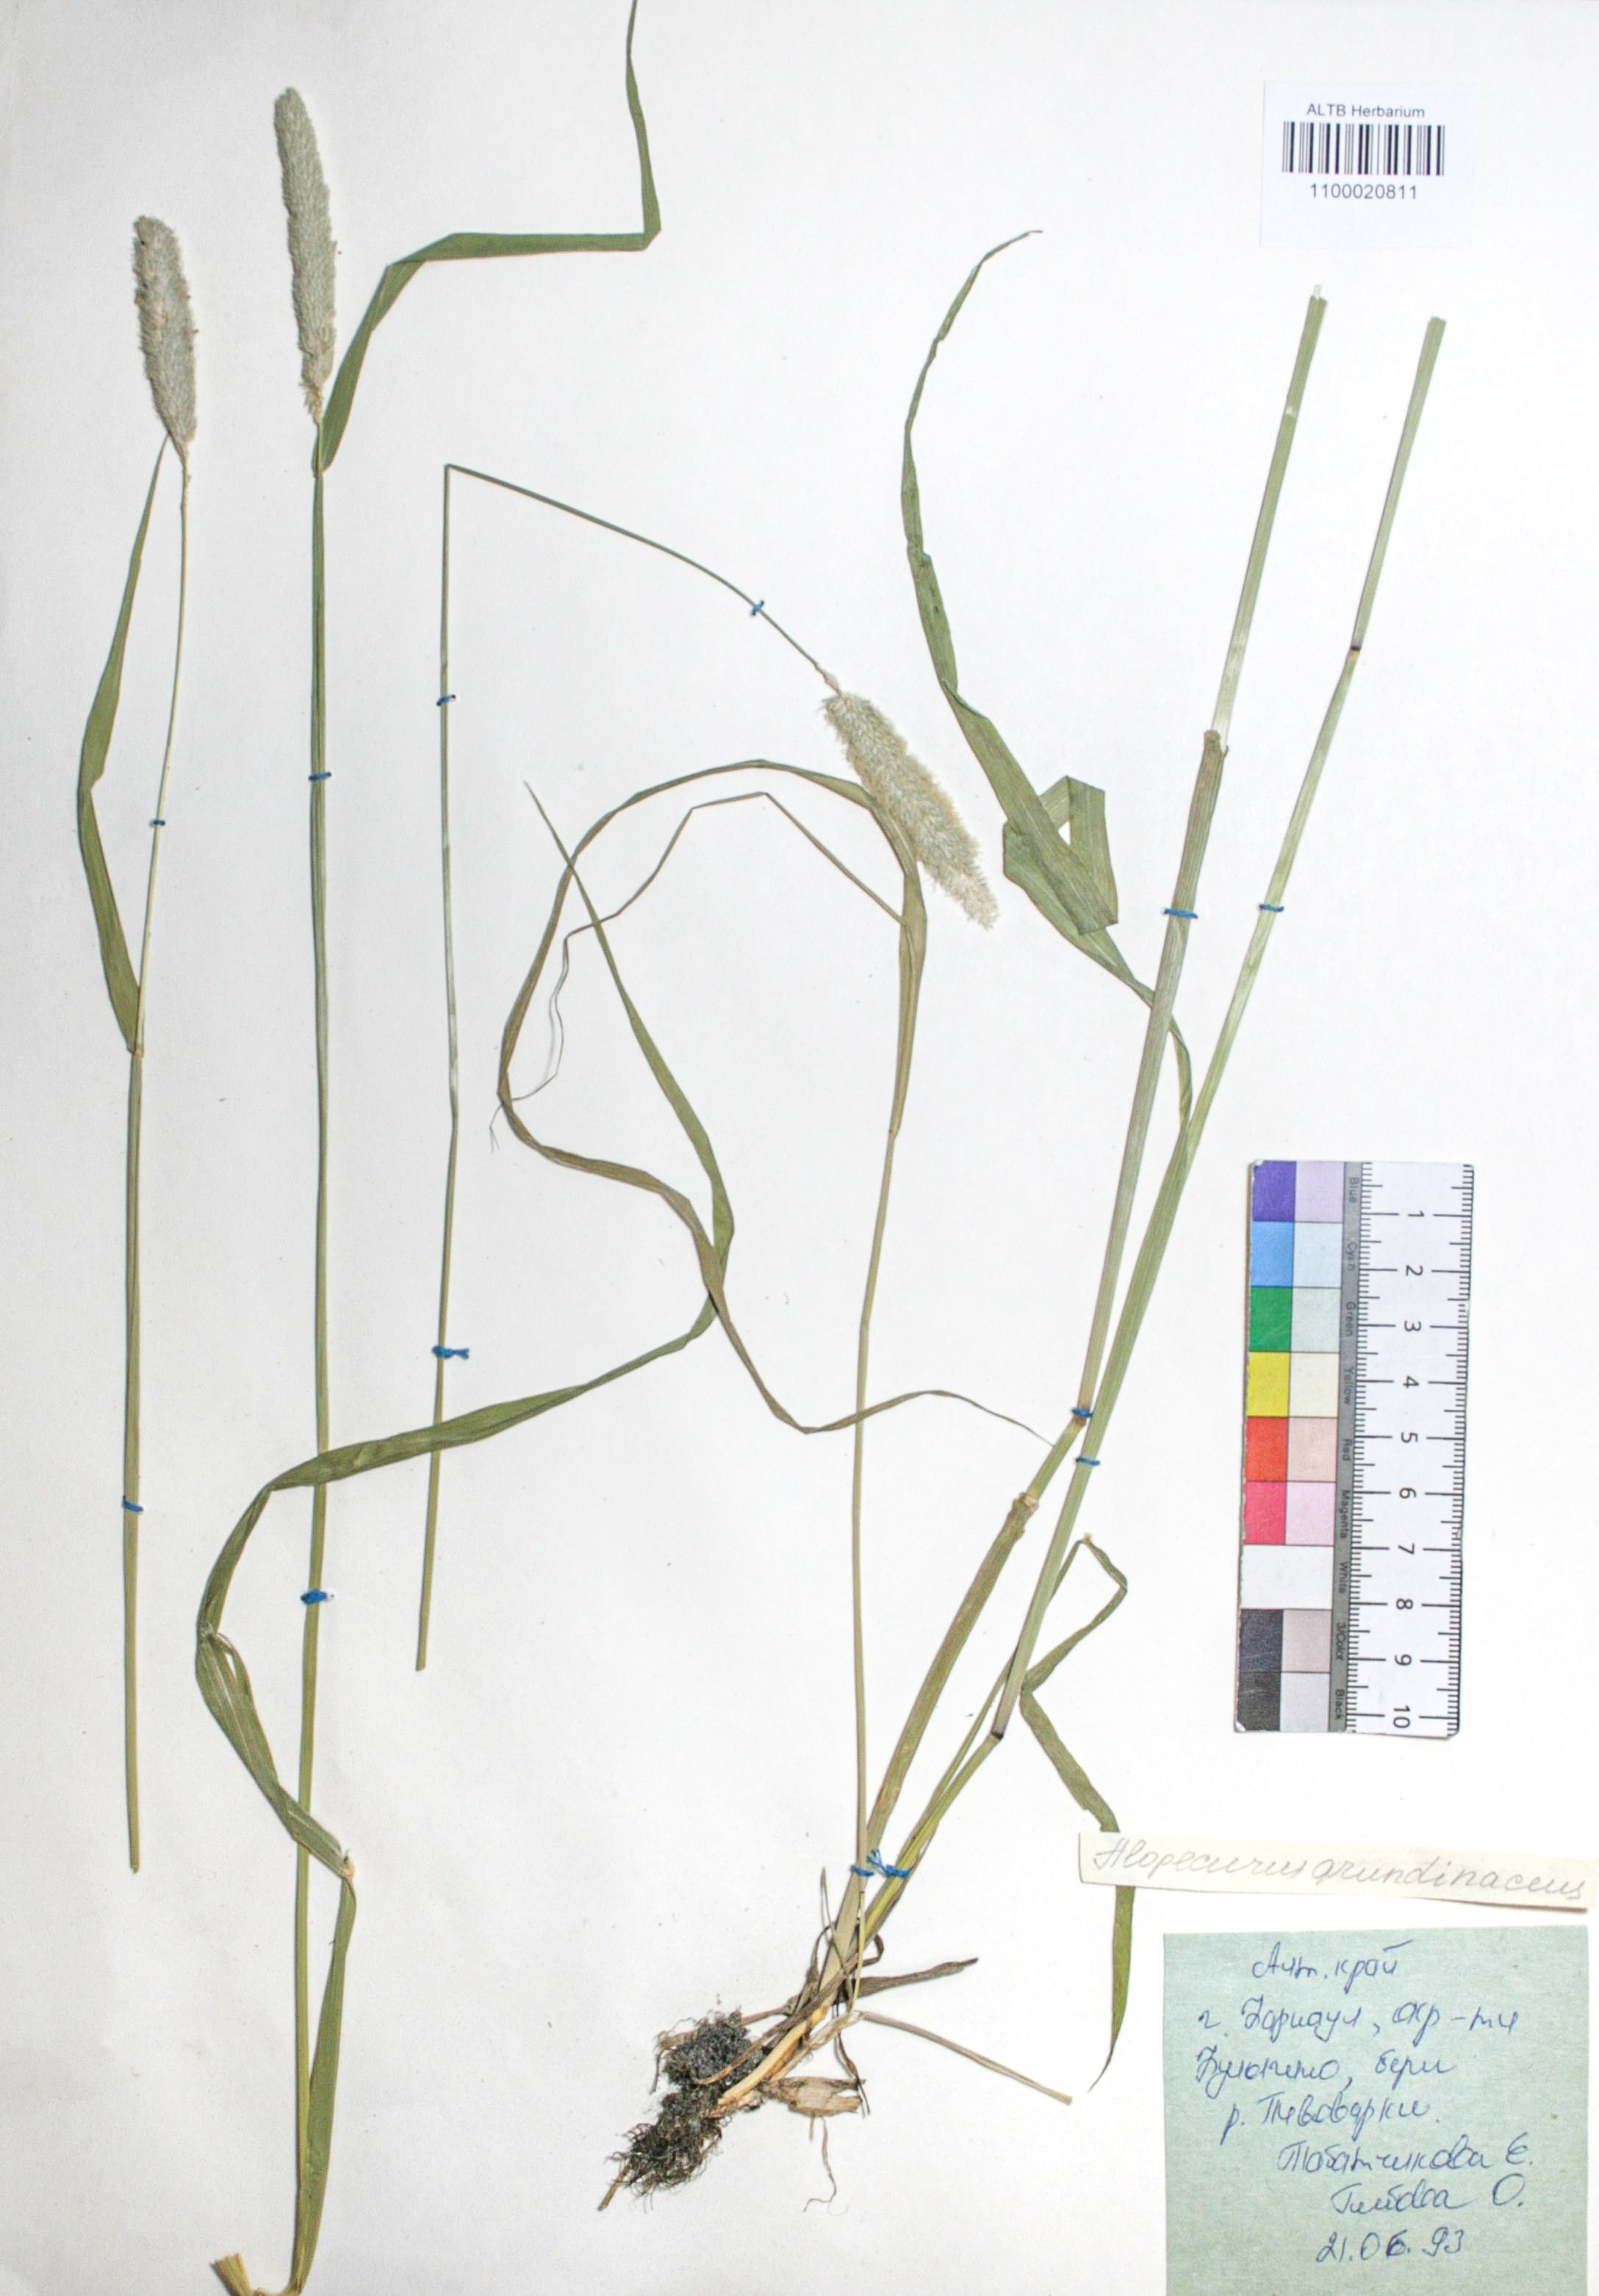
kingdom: Plantae
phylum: Tracheophyta
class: Liliopsida
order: Poales
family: Poaceae
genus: Alopecurus
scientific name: Alopecurus arundinaceus
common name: Creeping meadow foxtail
